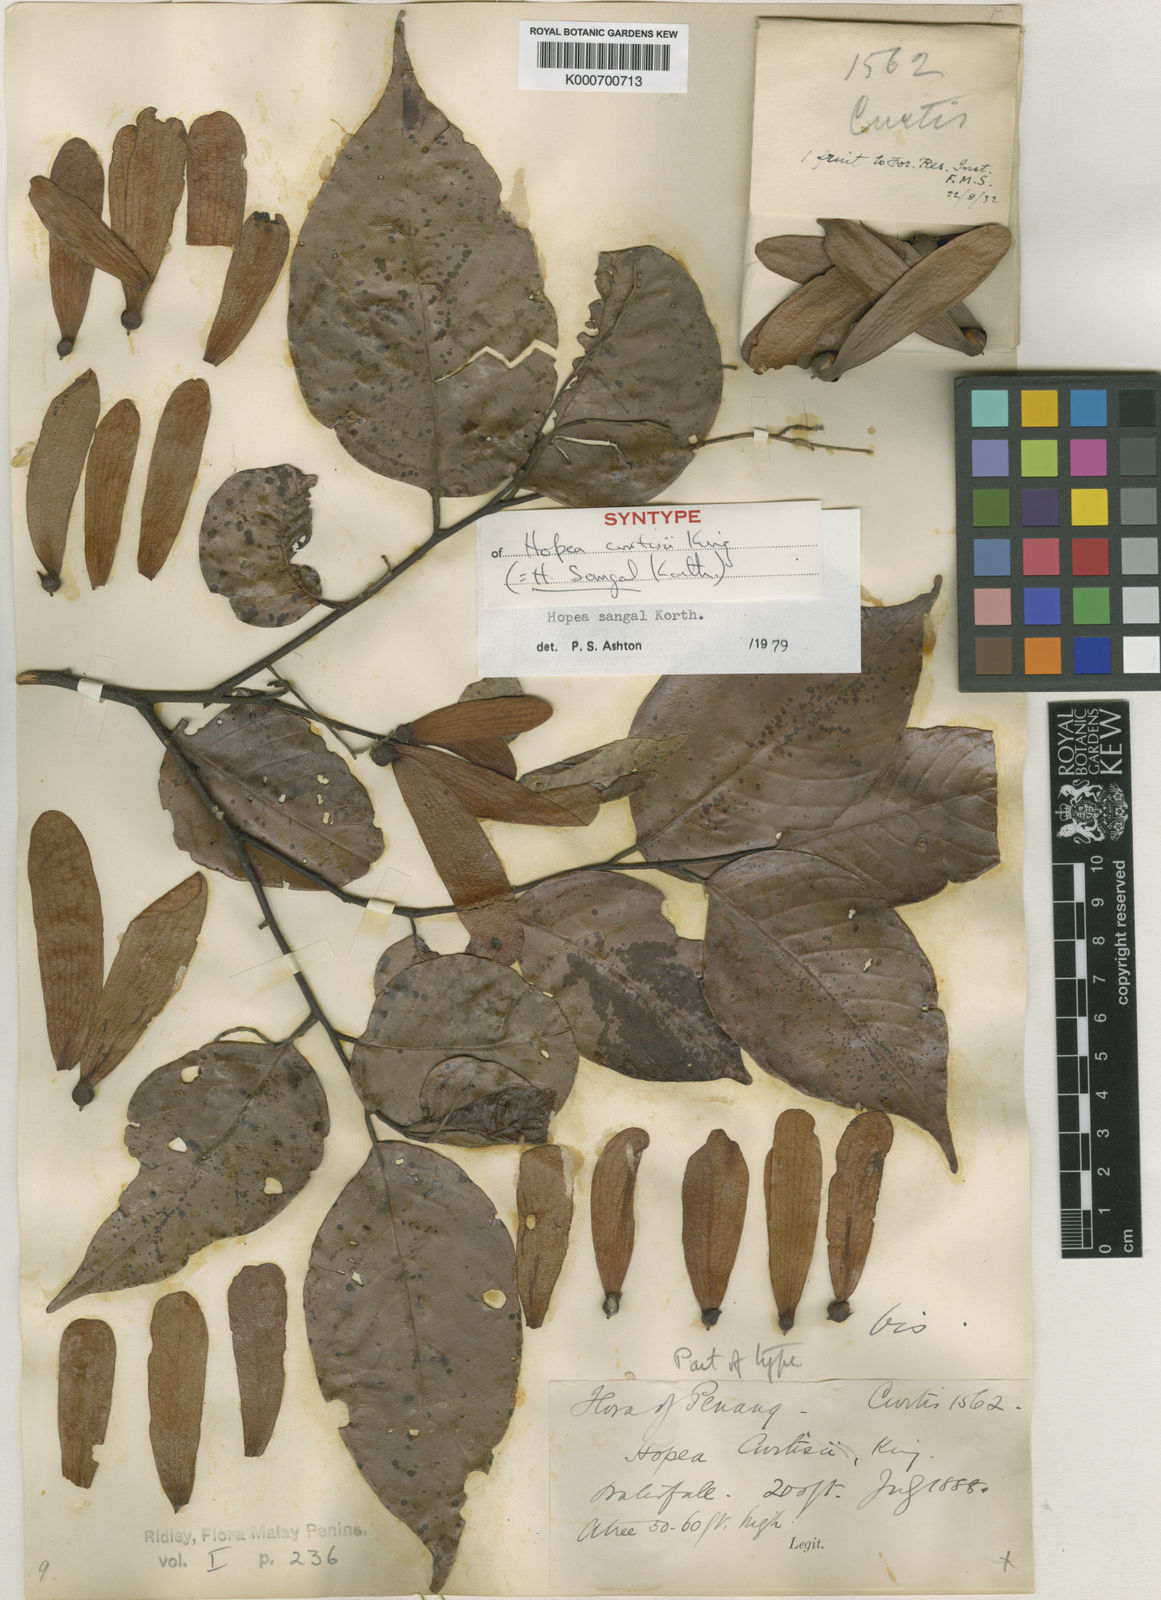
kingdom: Plantae
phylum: Tracheophyta
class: Magnoliopsida
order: Malvales
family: Dipterocarpaceae
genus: Hopea
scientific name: Hopea sangal
